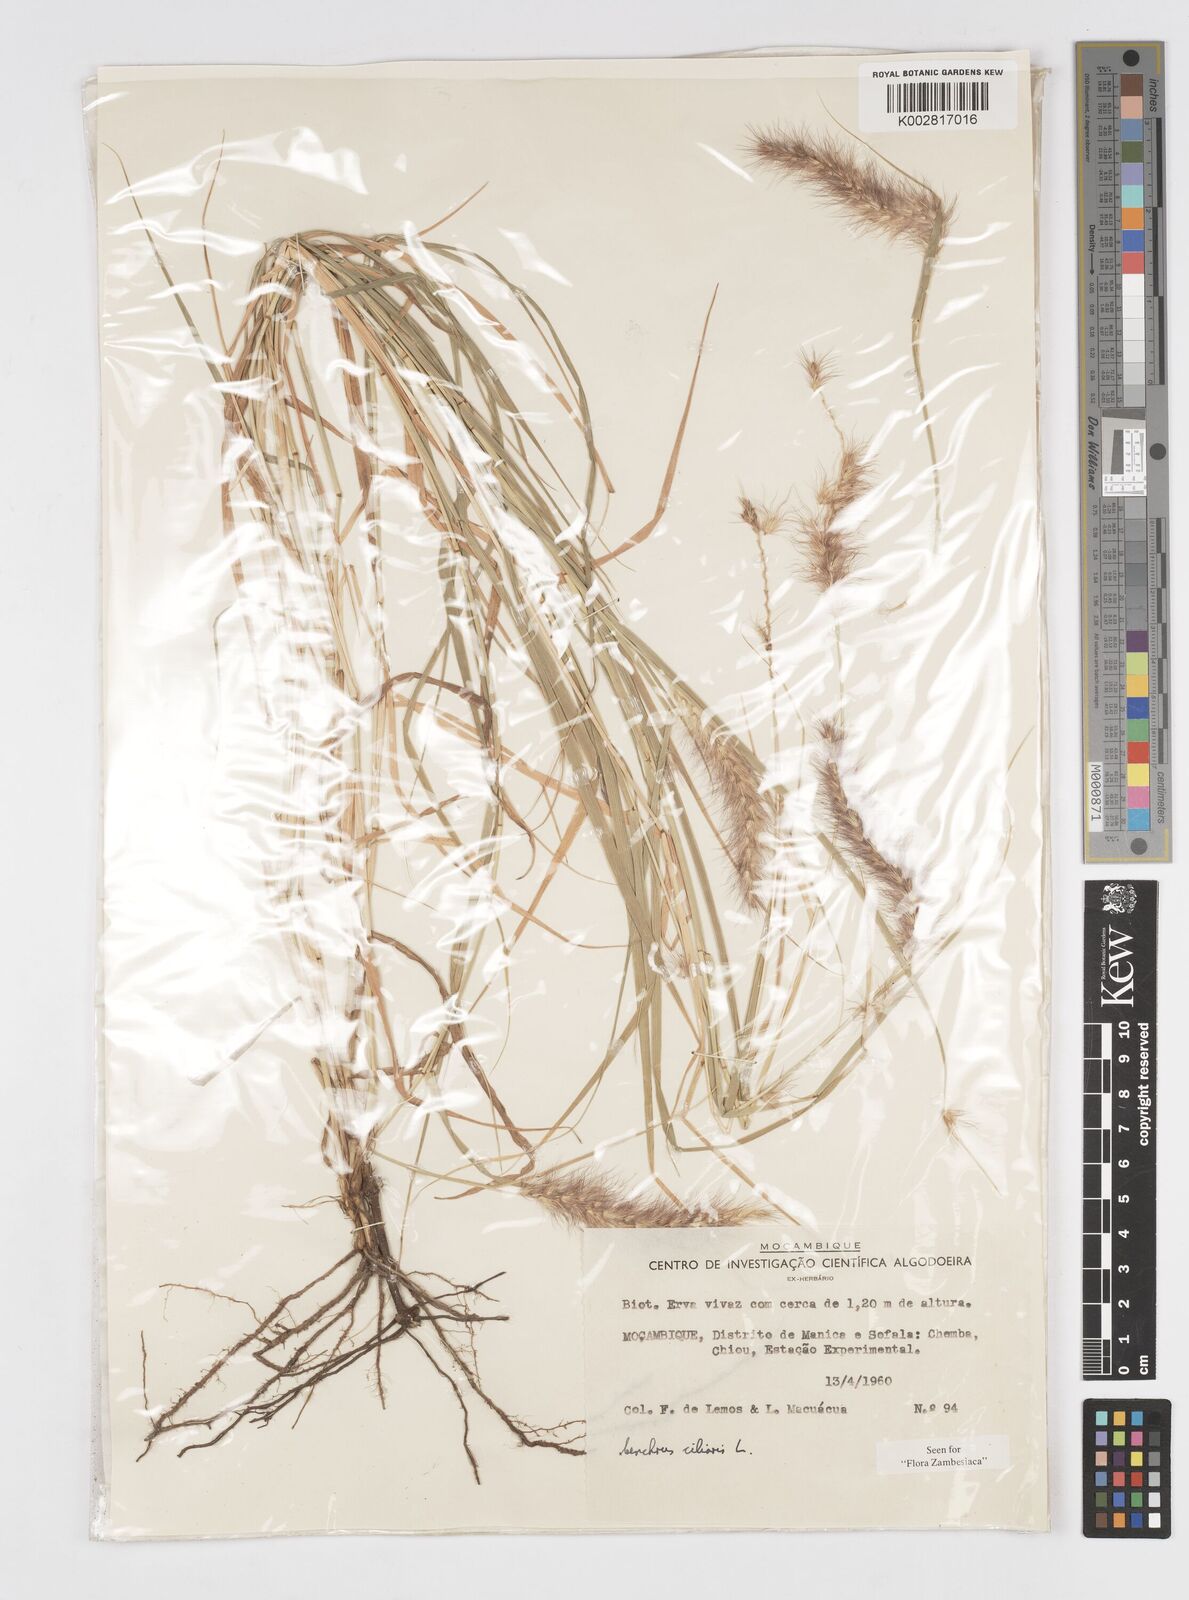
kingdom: Plantae
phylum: Tracheophyta
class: Liliopsida
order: Poales
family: Poaceae
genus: Cenchrus
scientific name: Cenchrus ciliaris
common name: Buffelgrass
